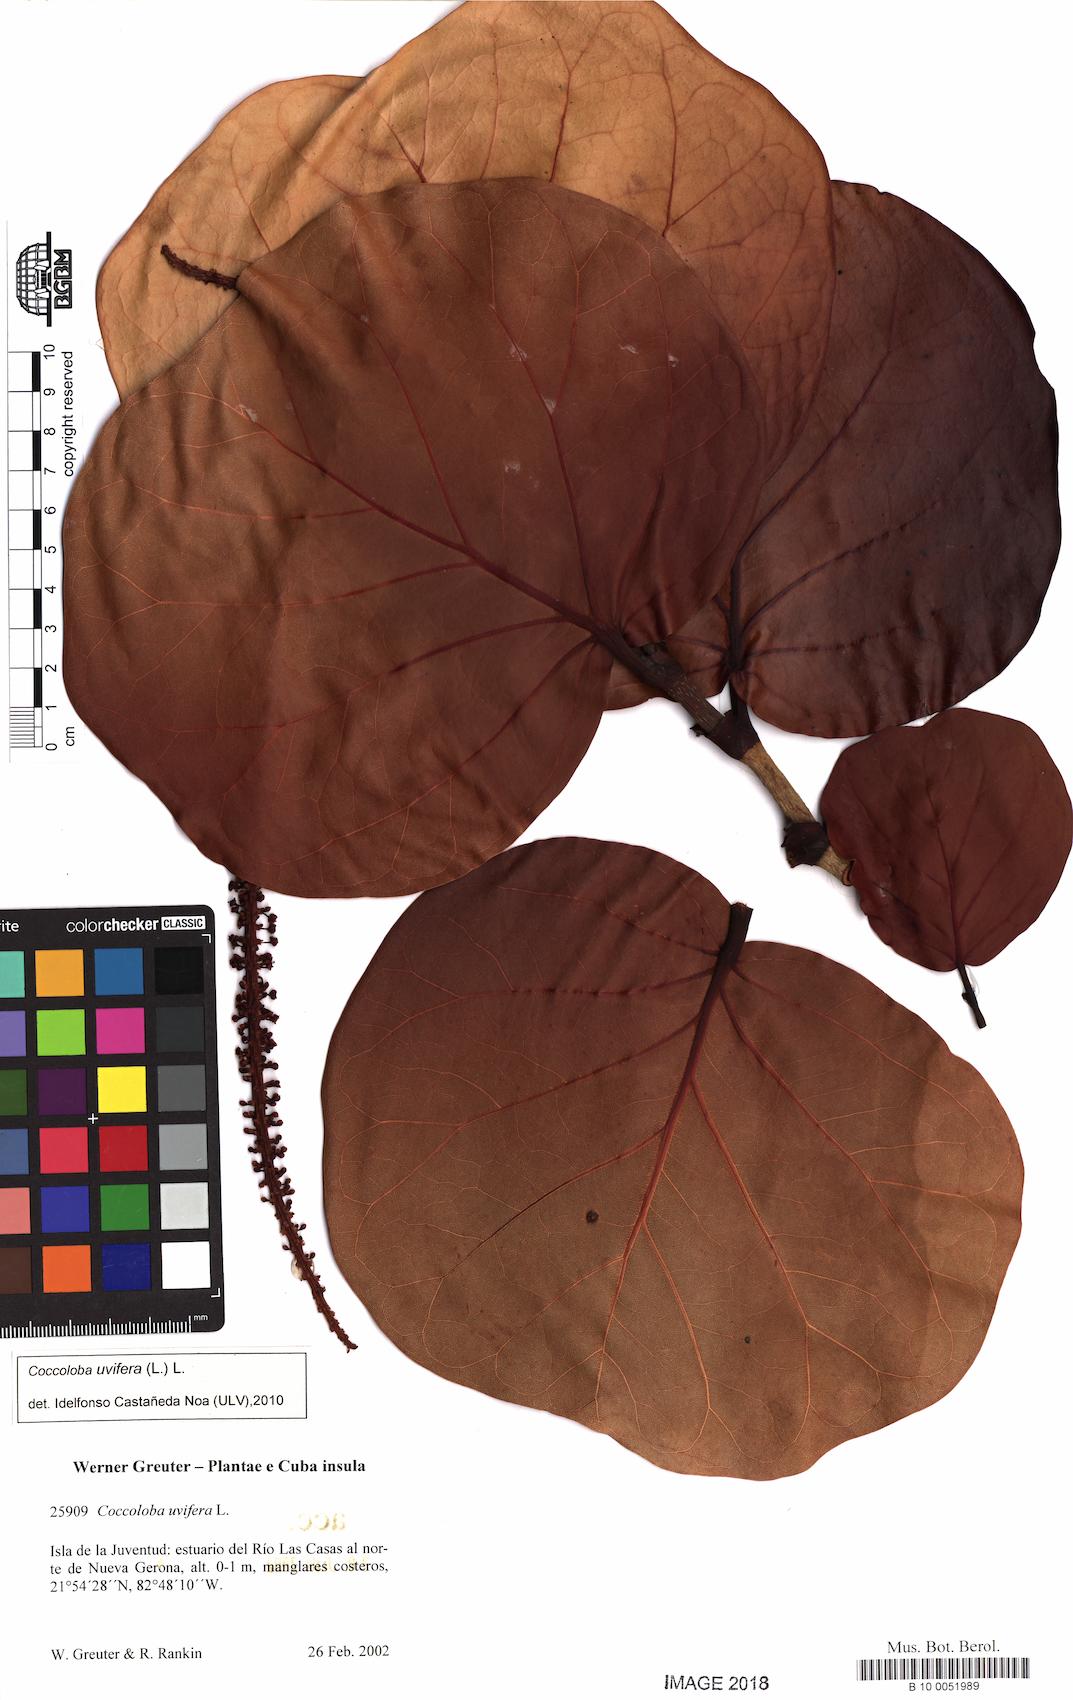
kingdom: Plantae
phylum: Tracheophyta
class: Magnoliopsida
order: Caryophyllales
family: Polygonaceae
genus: Coccoloba
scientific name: Coccoloba uvifera
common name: Seagrape
